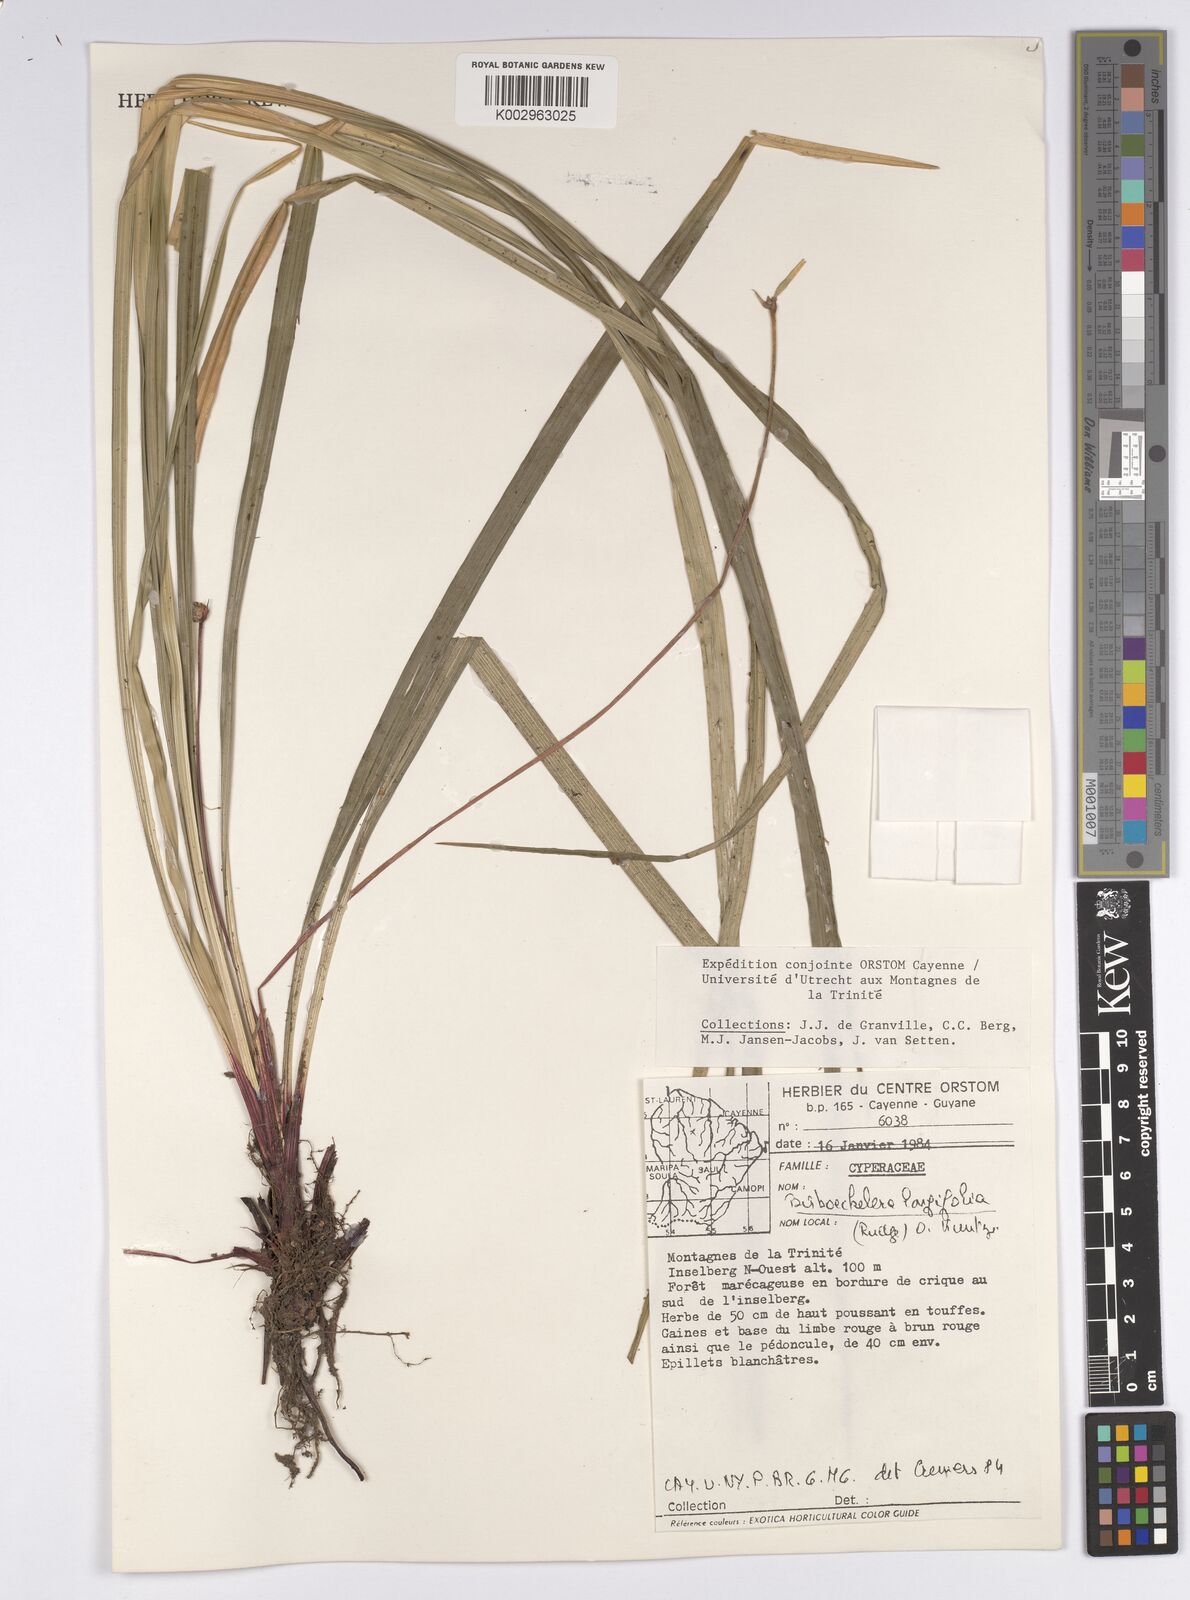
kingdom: Plantae
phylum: Tracheophyta
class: Liliopsida
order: Poales
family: Cyperaceae
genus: Bisboeckelera
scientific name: Bisboeckelera microcephala
